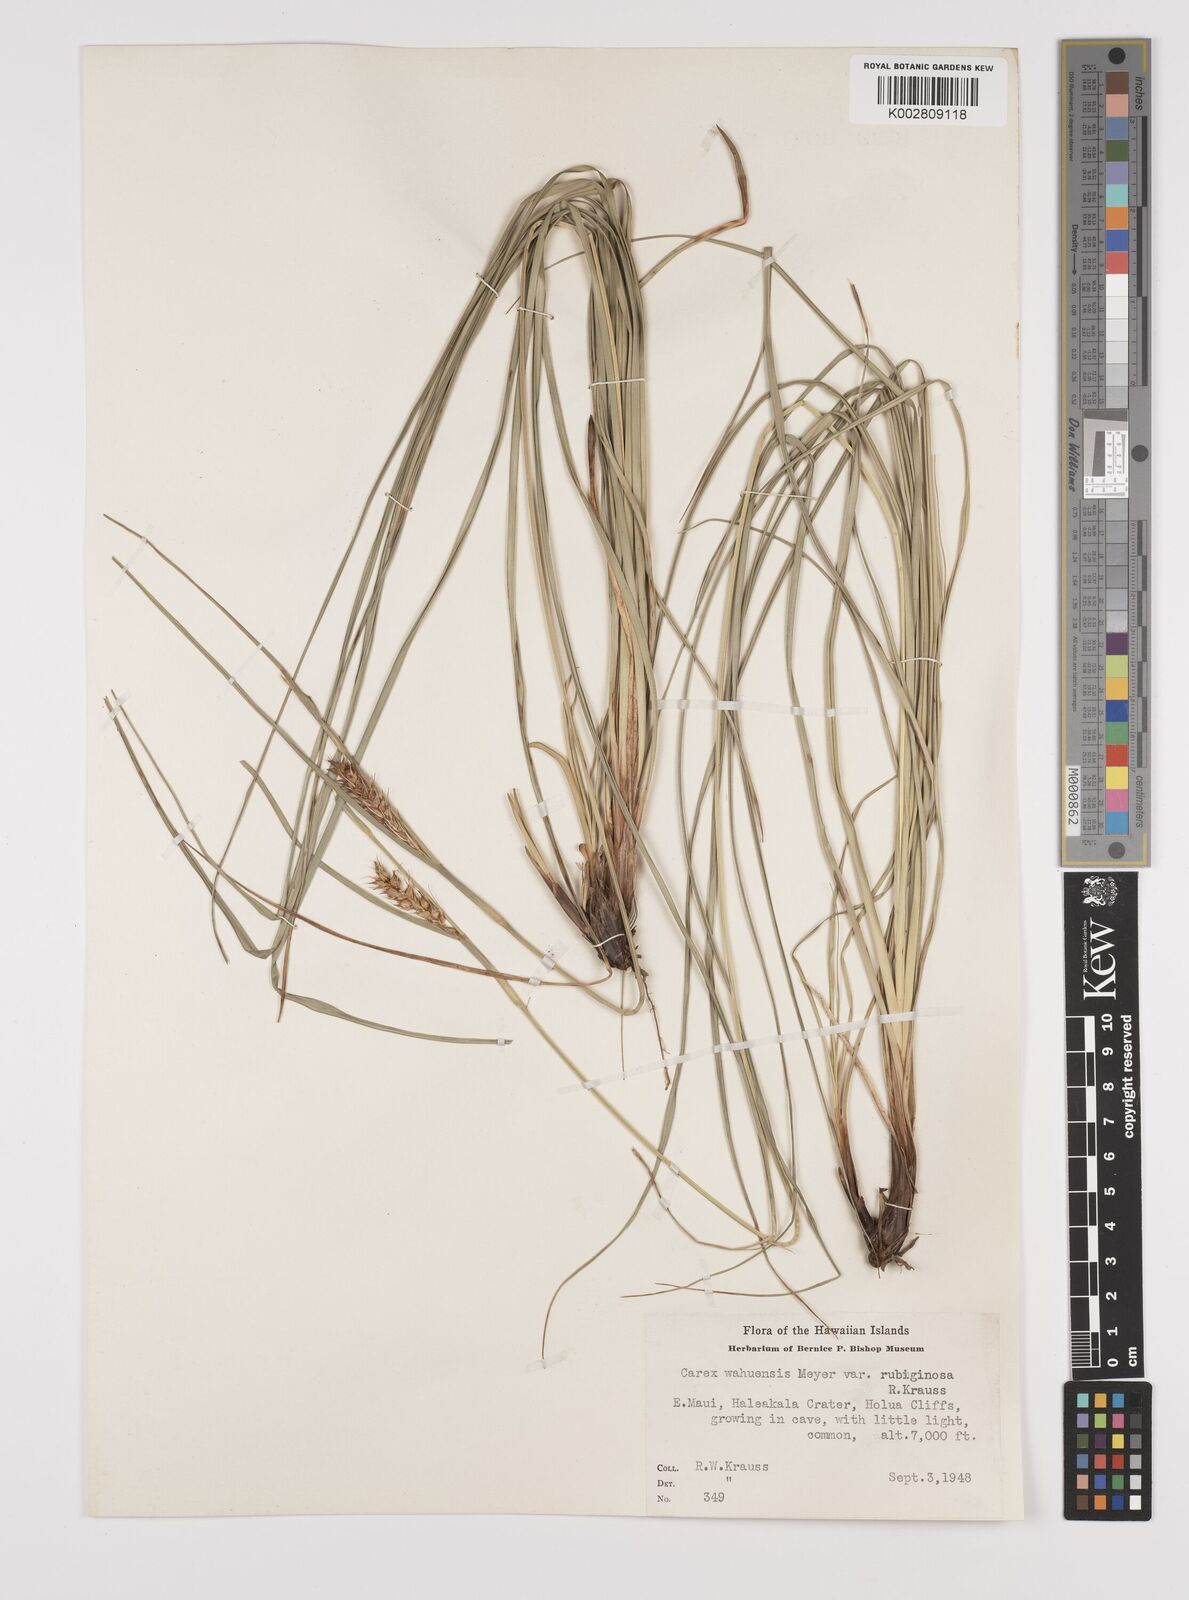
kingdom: Plantae
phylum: Tracheophyta
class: Liliopsida
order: Poales
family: Cyperaceae
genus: Carex
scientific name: Carex wahuensis
